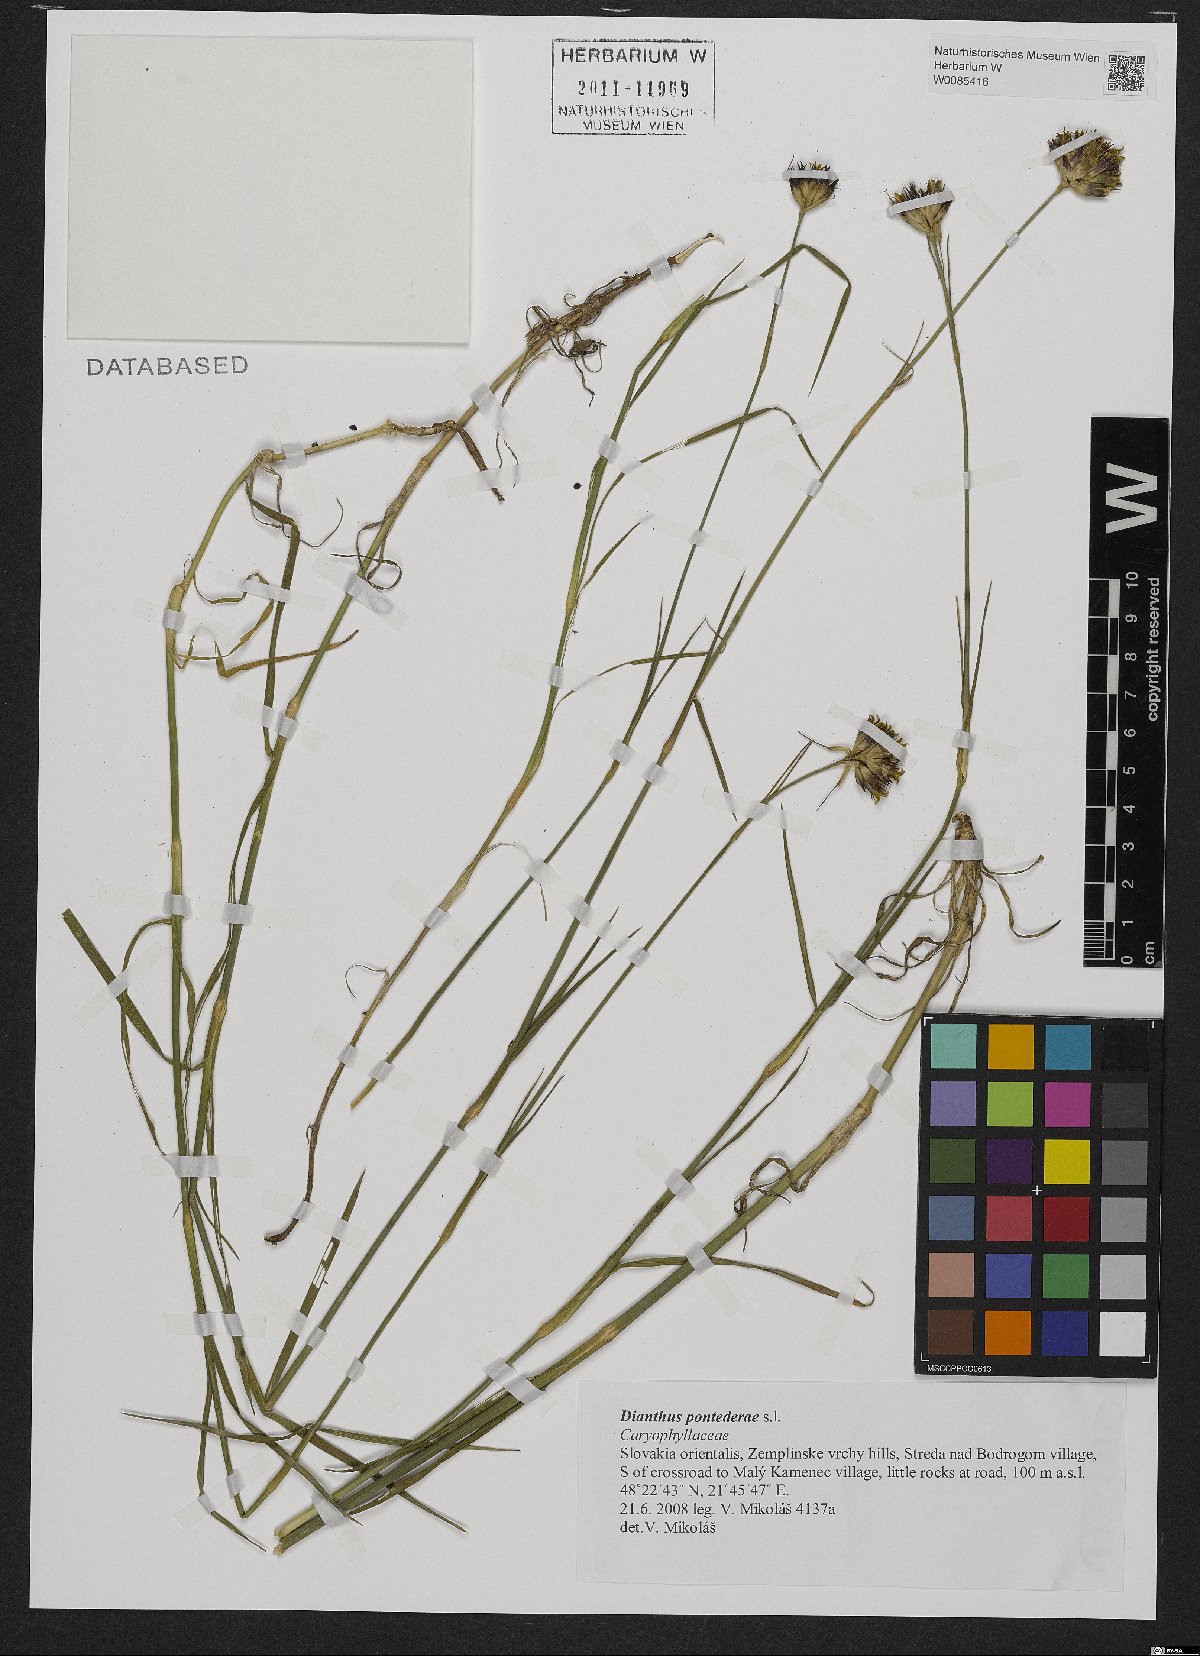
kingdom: Plantae
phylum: Tracheophyta
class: Magnoliopsida
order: Caryophyllales
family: Caryophyllaceae
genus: Dianthus
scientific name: Dianthus pontederae
